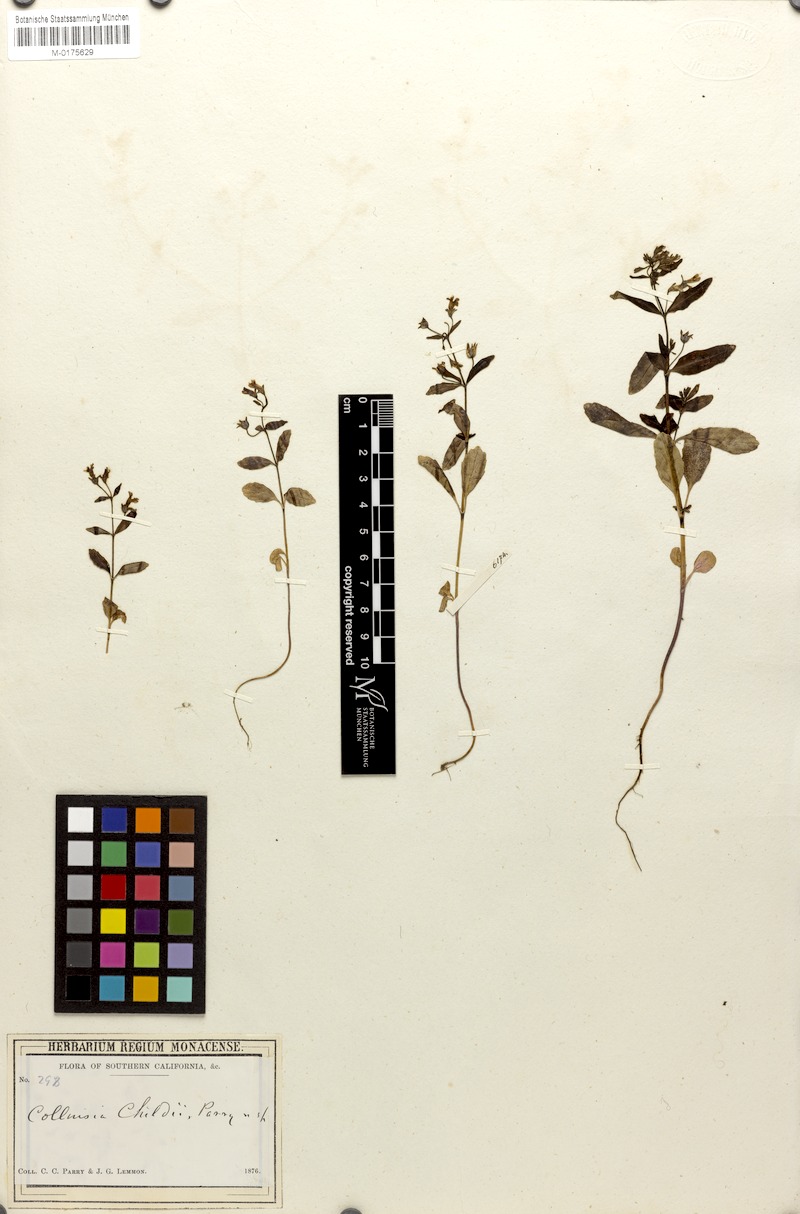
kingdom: Plantae
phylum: Tracheophyta
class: Magnoliopsida
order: Lamiales
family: Plantaginaceae
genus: Collinsia
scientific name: Collinsia childii
